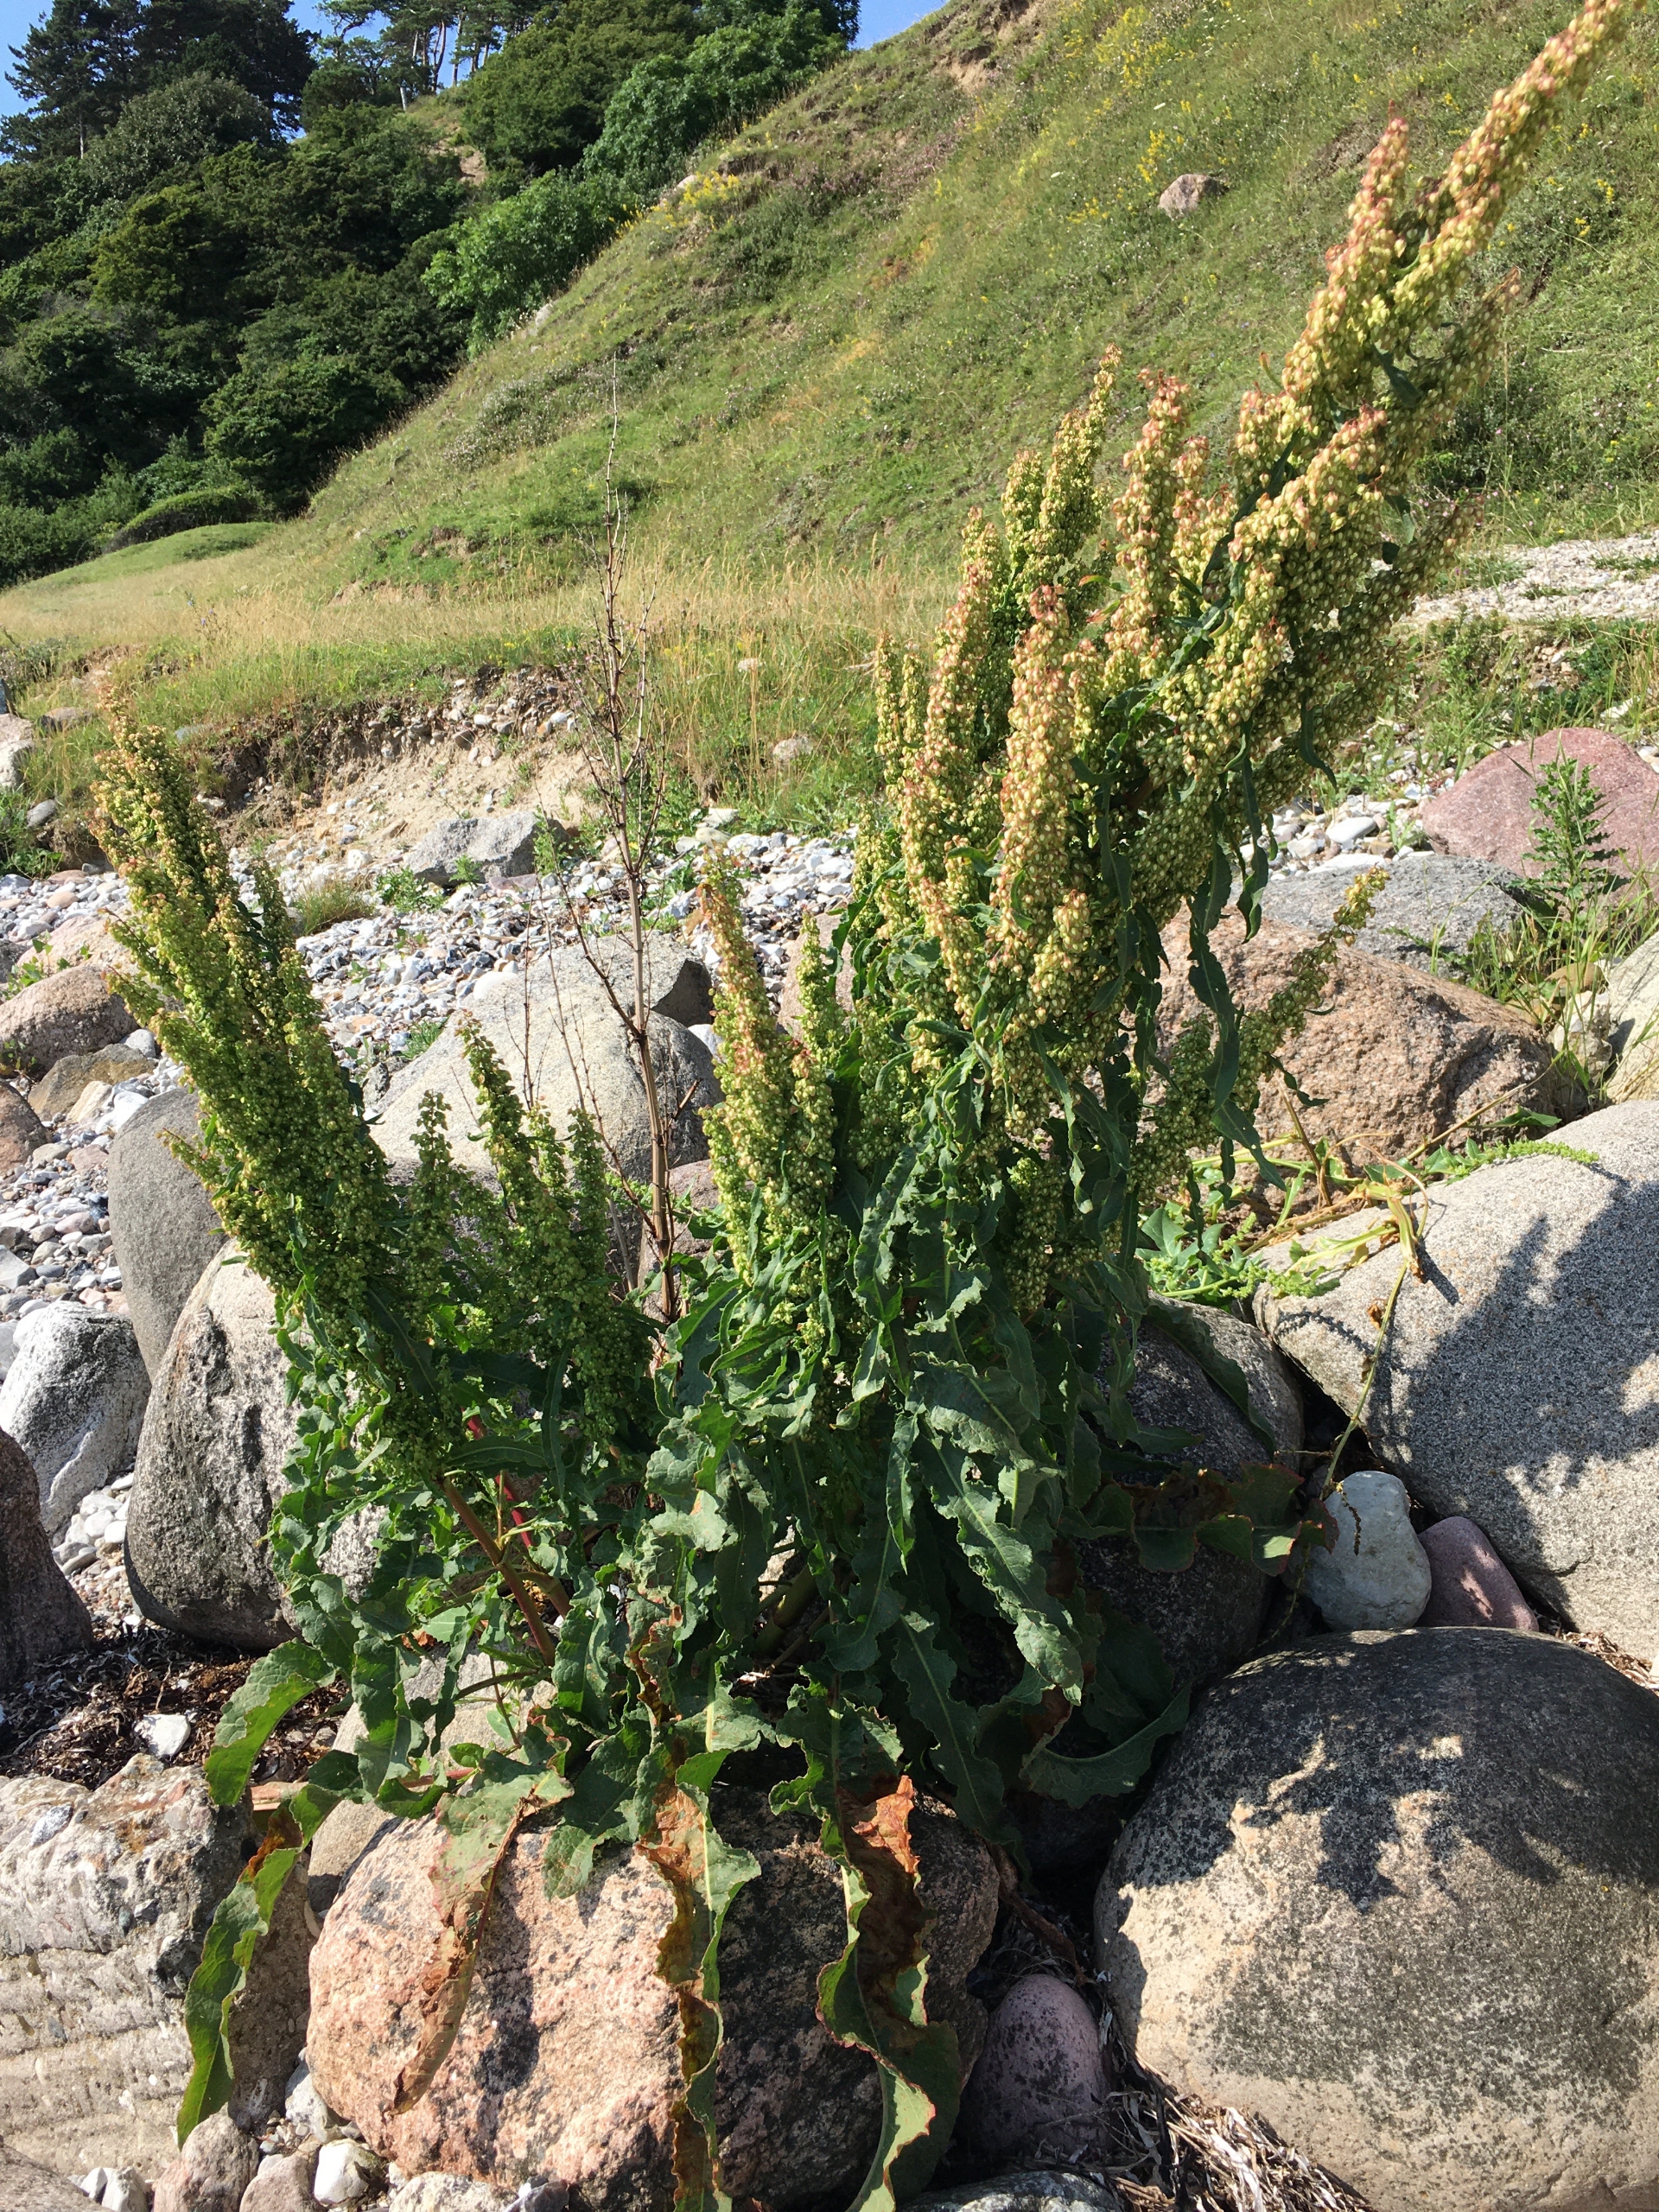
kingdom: Plantae
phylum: Tracheophyta
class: Magnoliopsida
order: Caryophyllales
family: Polygonaceae
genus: Rumex
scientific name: Rumex crispus
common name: Kruset skræppe
